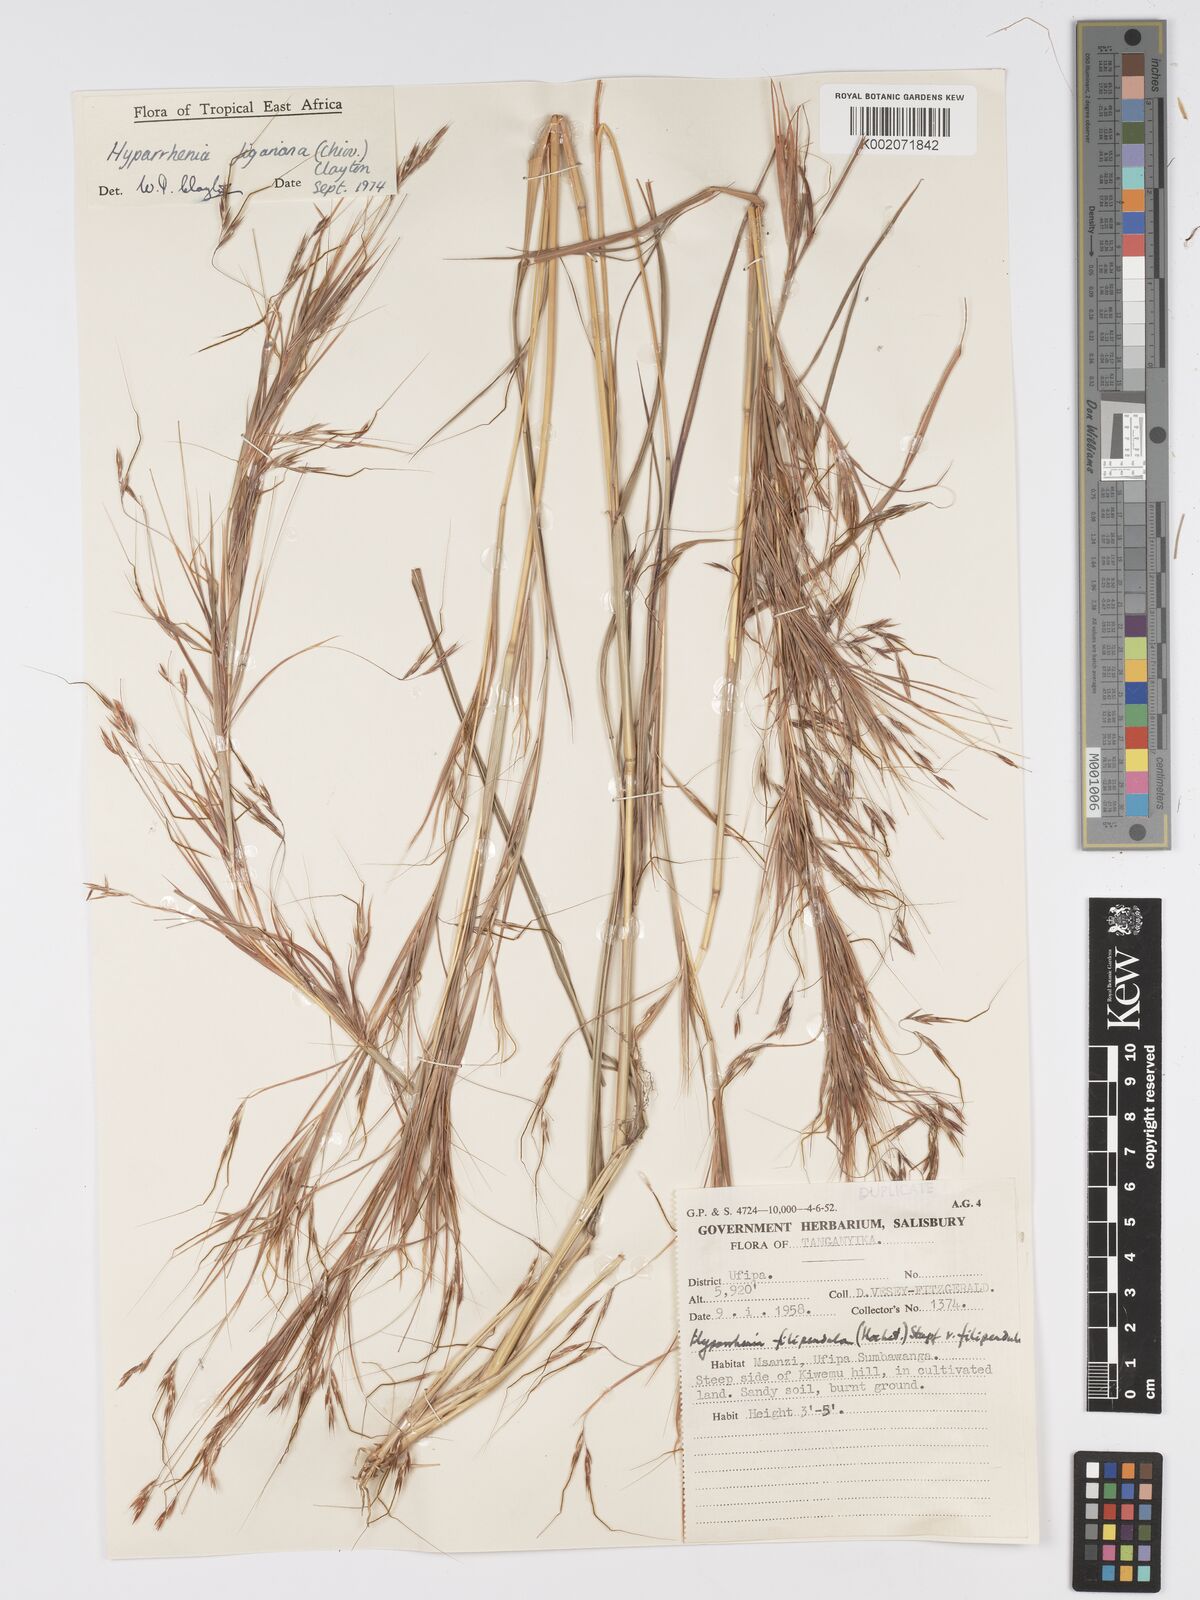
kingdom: Plantae
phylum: Tracheophyta
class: Liliopsida
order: Poales
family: Poaceae
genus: Hyparrhenia
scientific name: Hyparrhenia figariana
